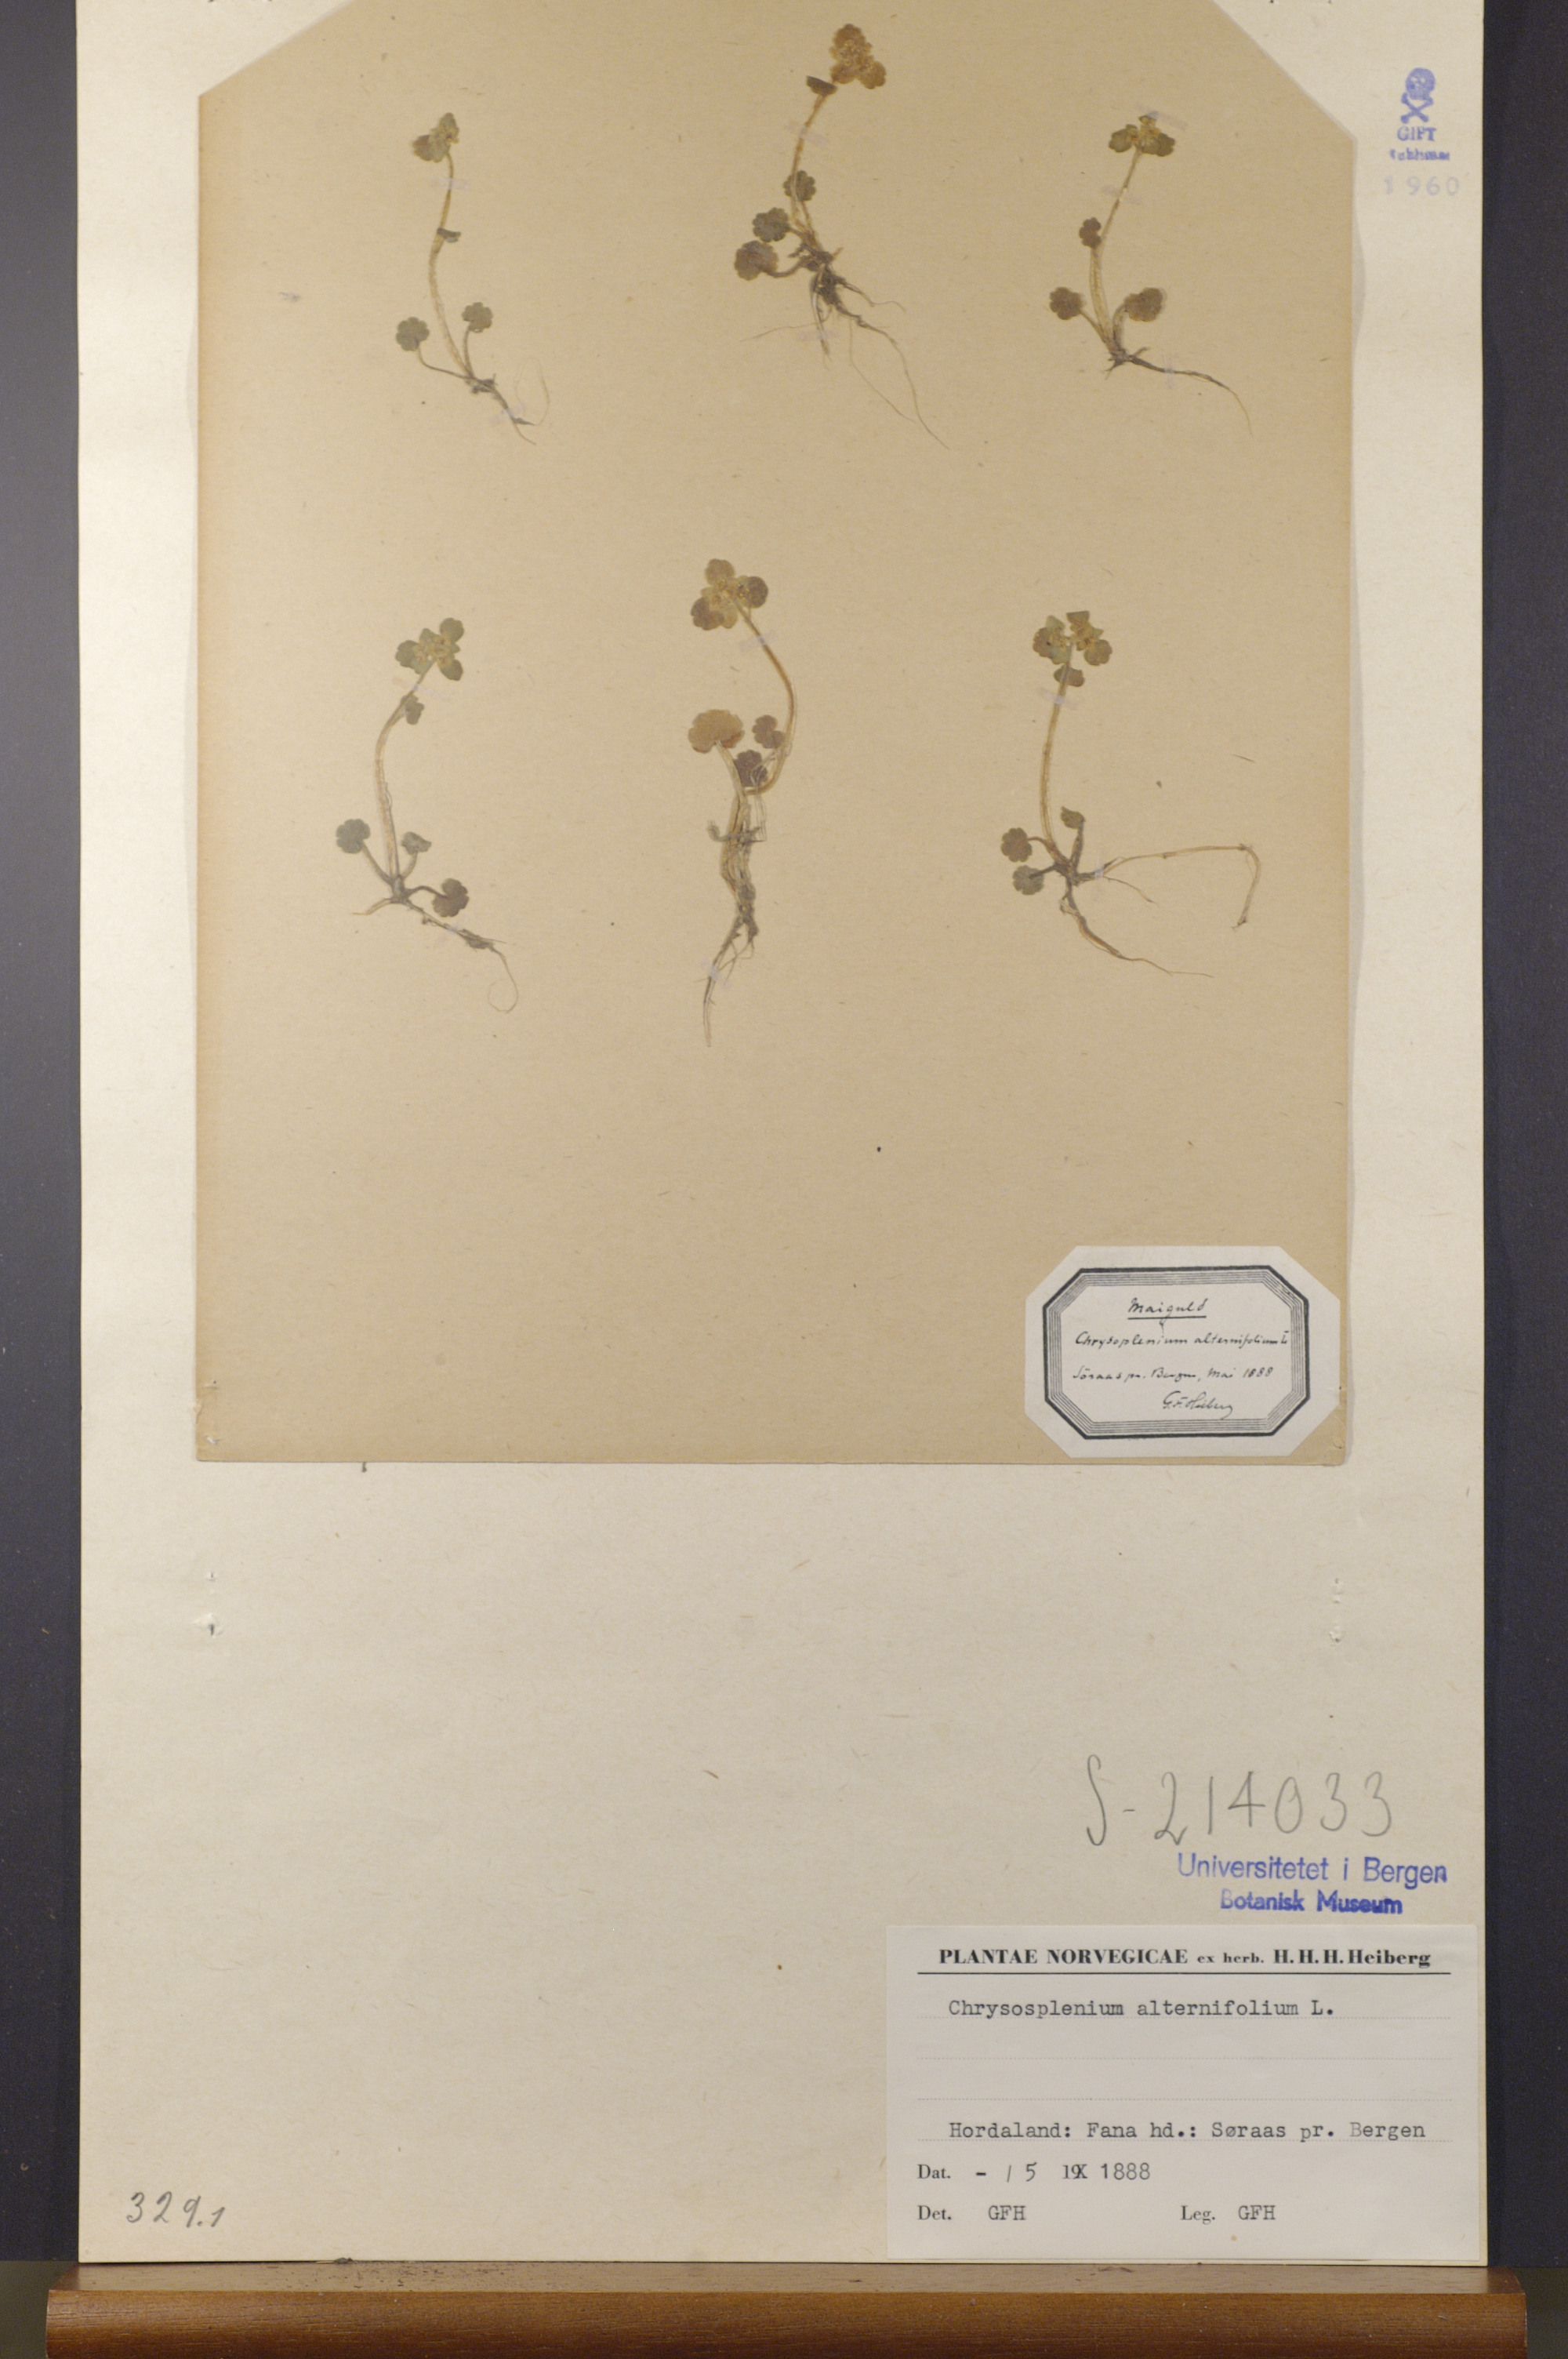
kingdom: Plantae
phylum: Tracheophyta
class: Magnoliopsida
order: Saxifragales
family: Saxifragaceae
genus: Chrysosplenium
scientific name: Chrysosplenium alternifolium
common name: Alternate-leaved golden-saxifrage
